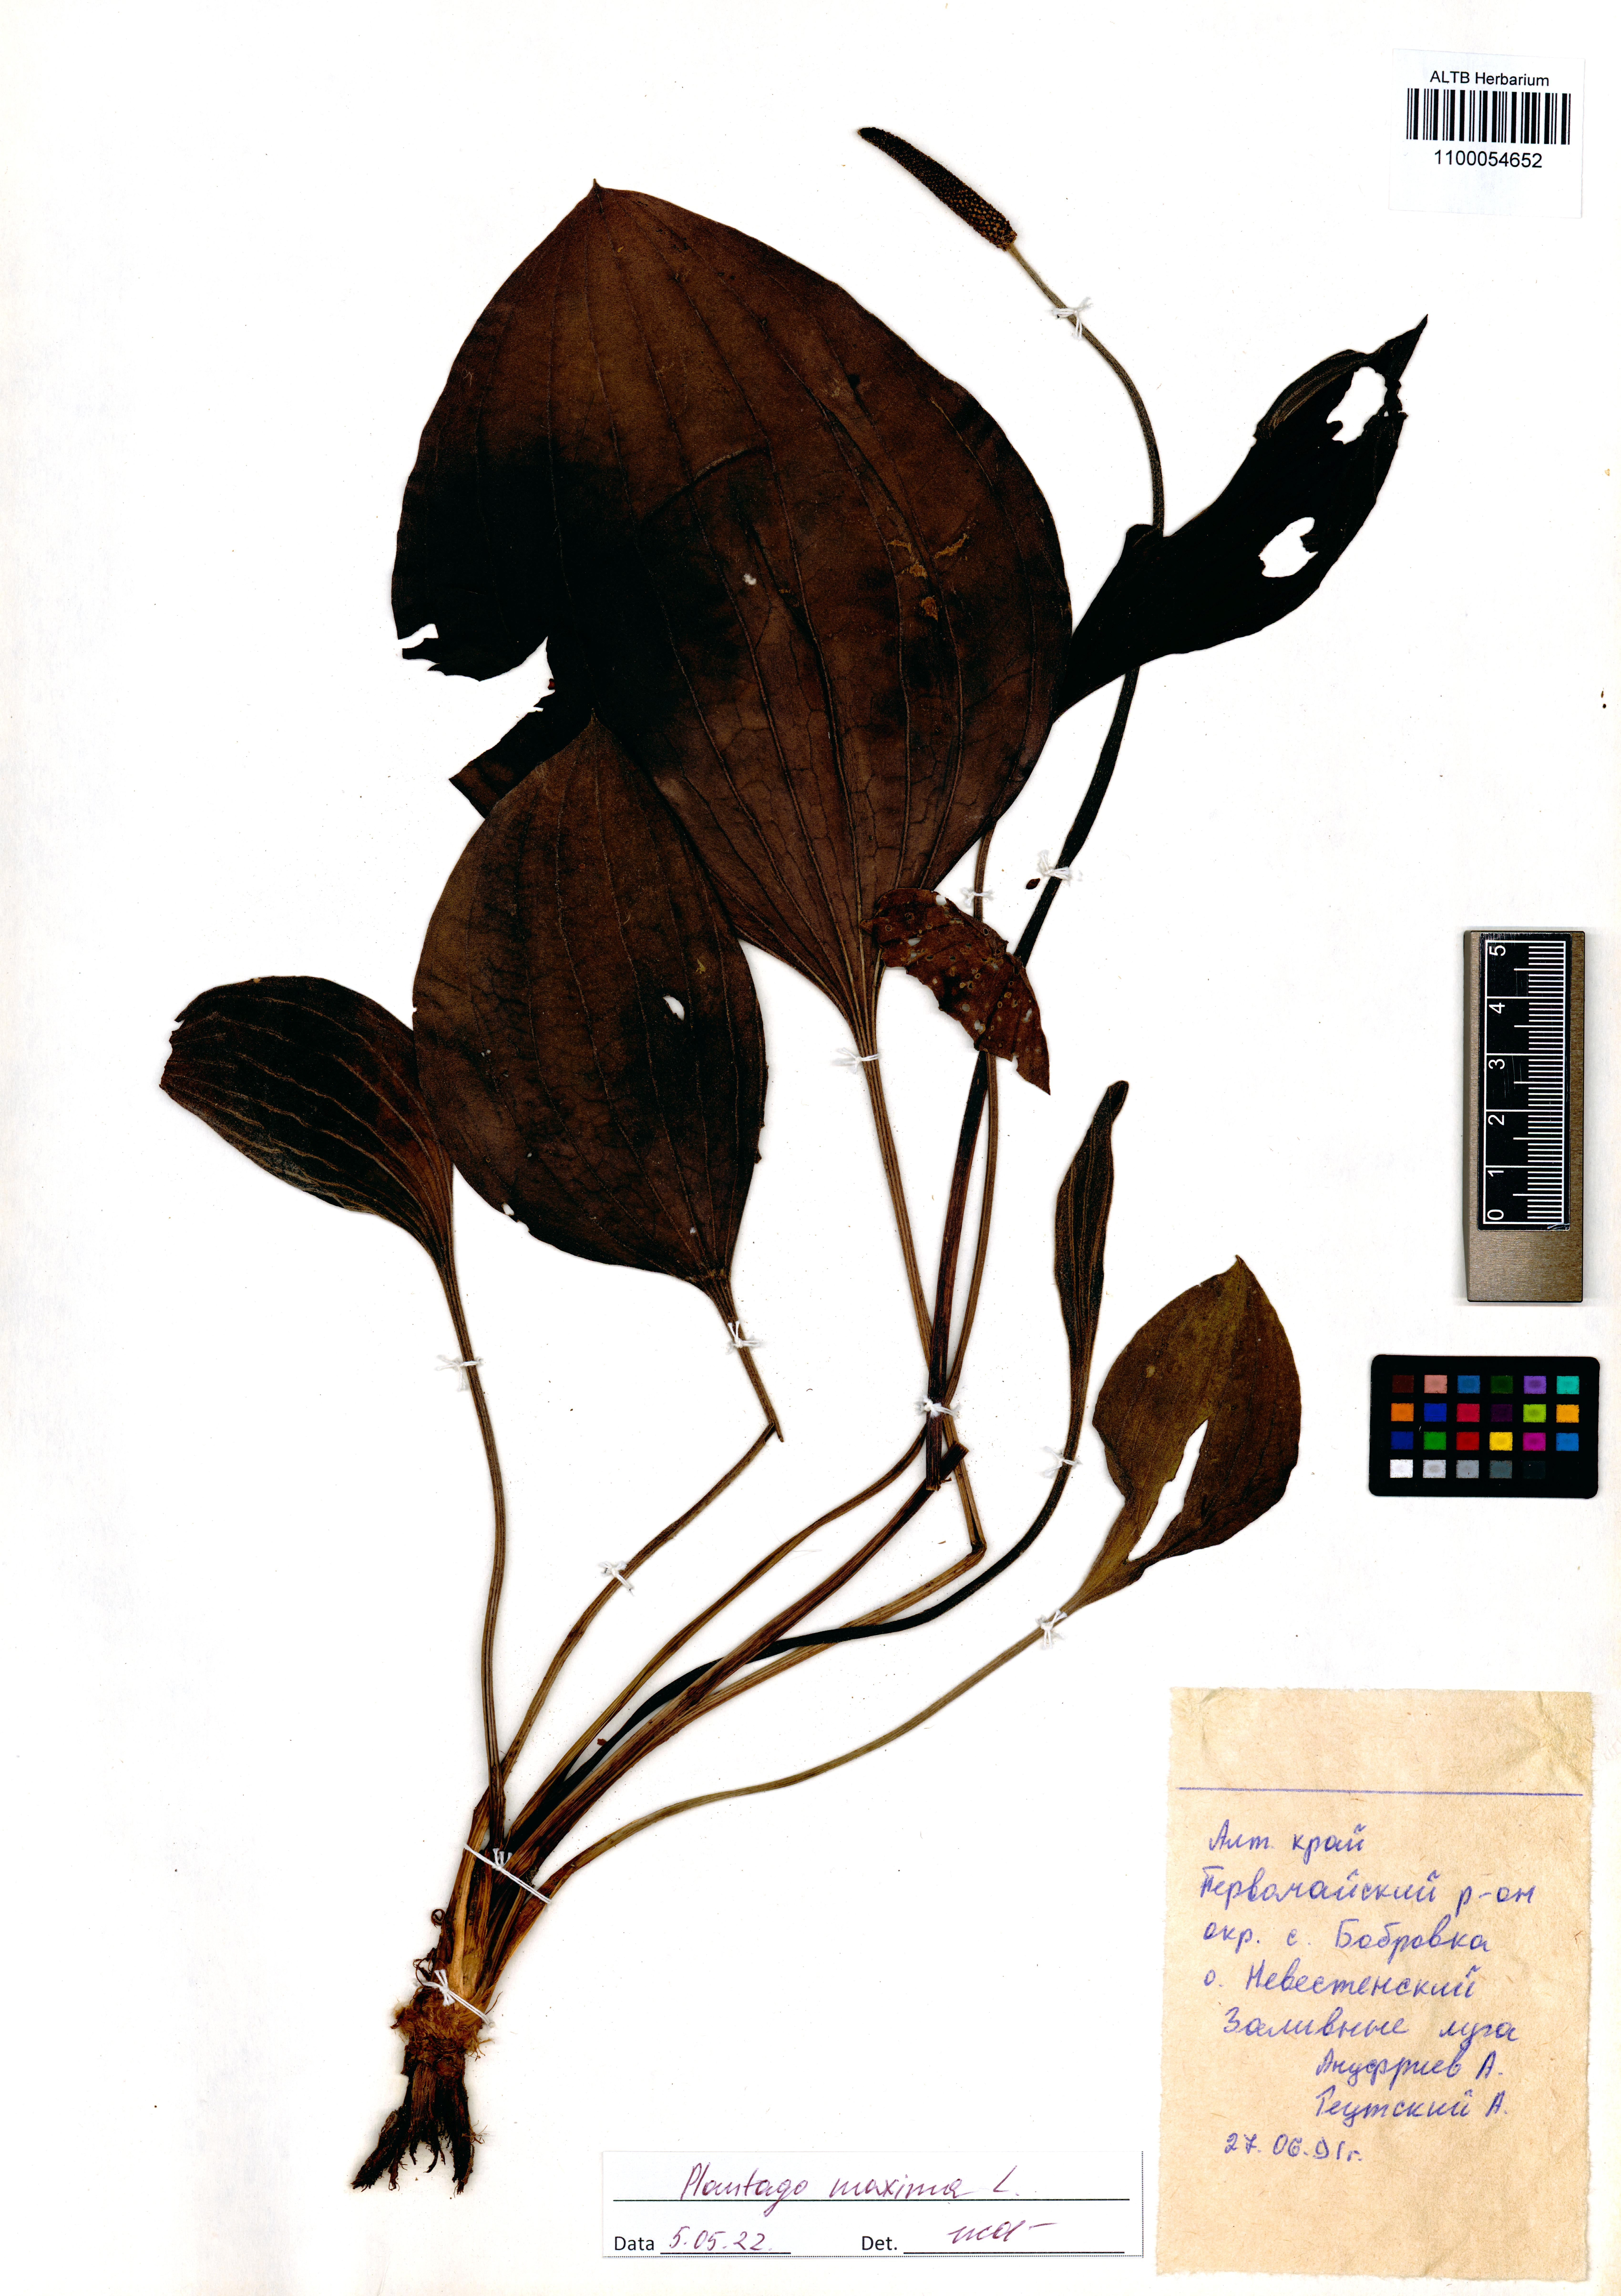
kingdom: Plantae
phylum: Tracheophyta
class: Magnoliopsida
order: Lamiales
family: Plantaginaceae
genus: Plantago
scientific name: Plantago maxima
